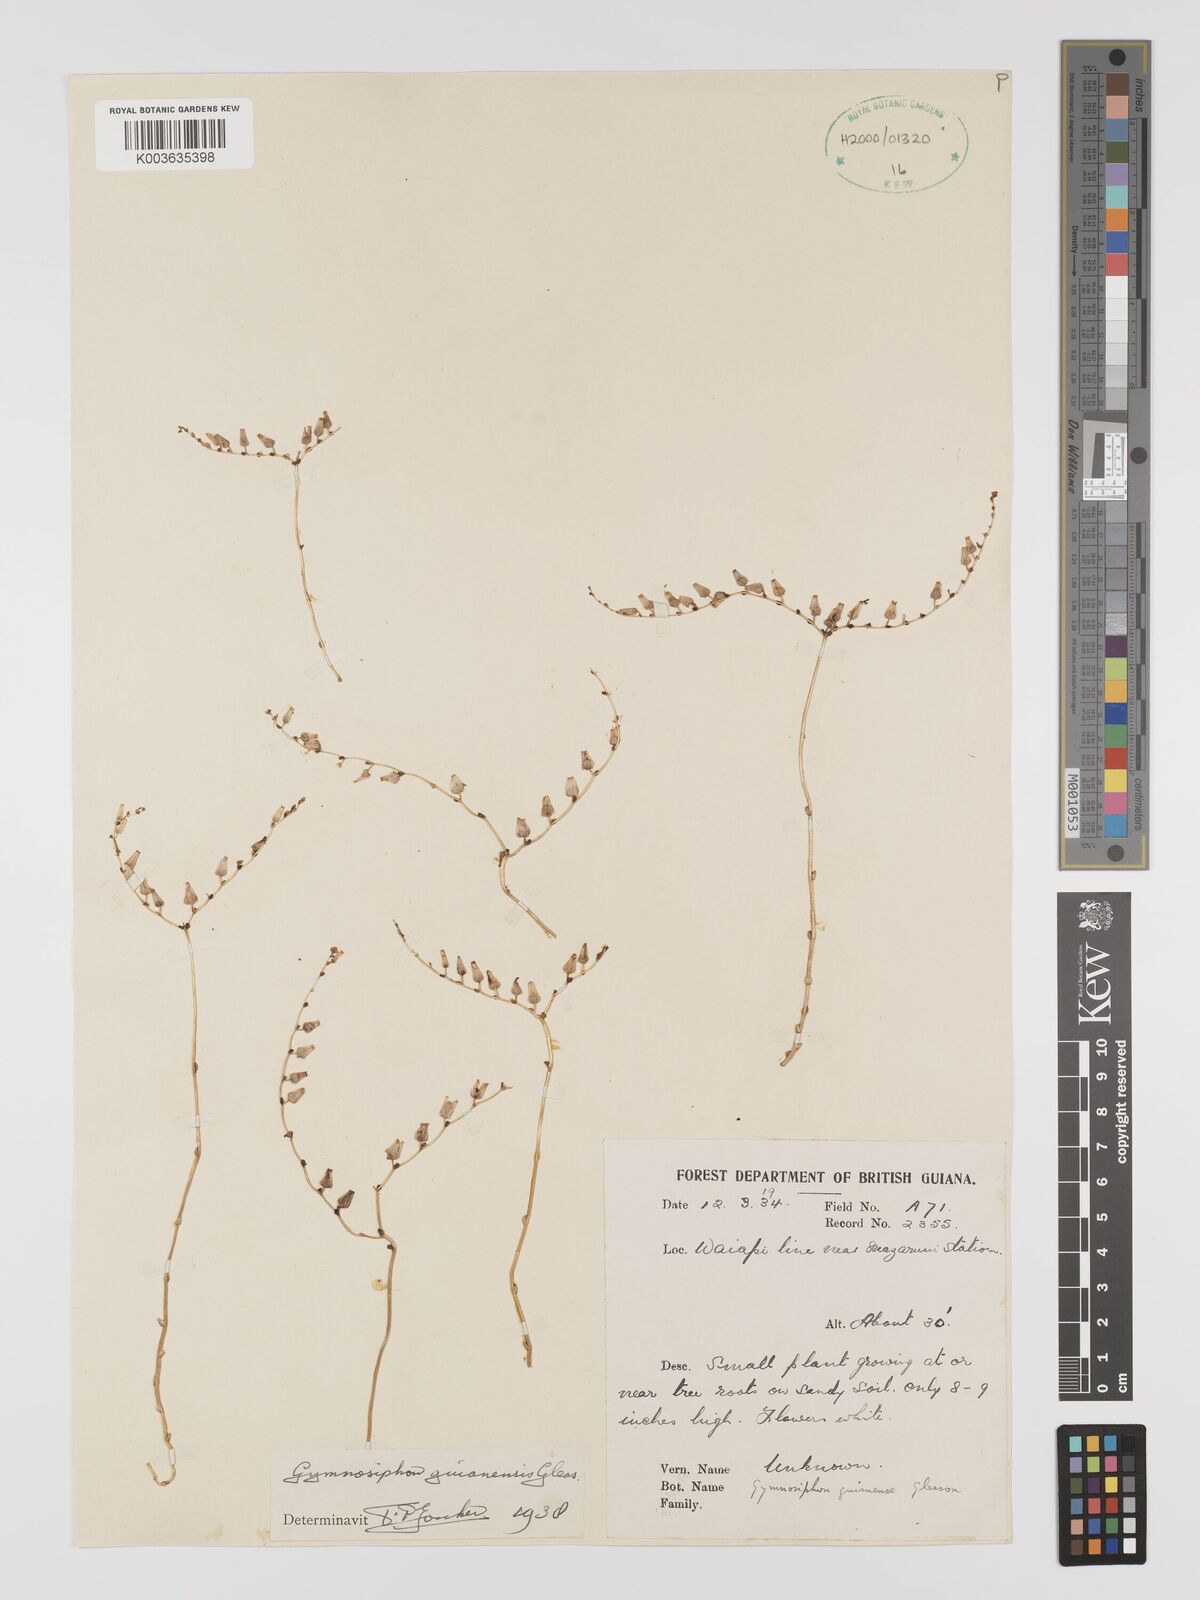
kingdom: Plantae
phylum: Tracheophyta
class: Liliopsida
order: Dioscoreales
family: Burmanniaceae
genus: Gymnosiphon
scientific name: Gymnosiphon guianensis
